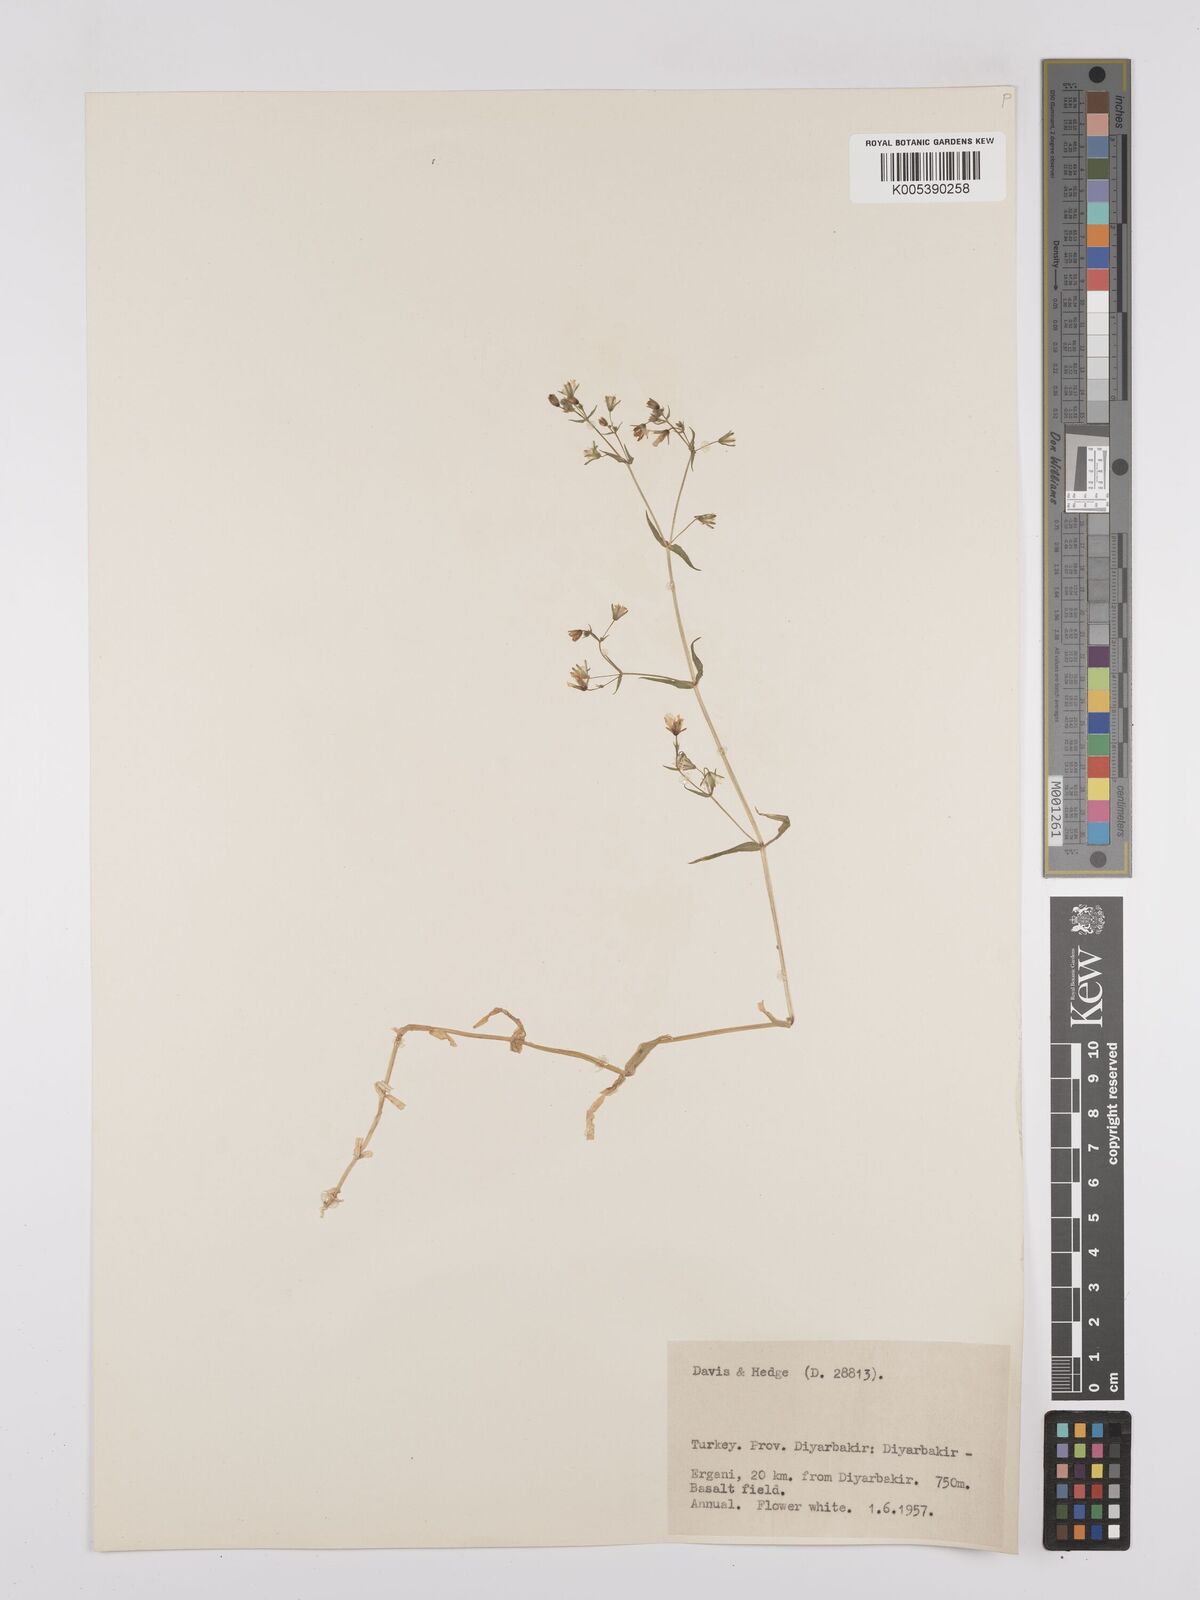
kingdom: Plantae
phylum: Tracheophyta
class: Magnoliopsida
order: Caryophyllales
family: Caryophyllaceae
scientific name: Caryophyllaceae
